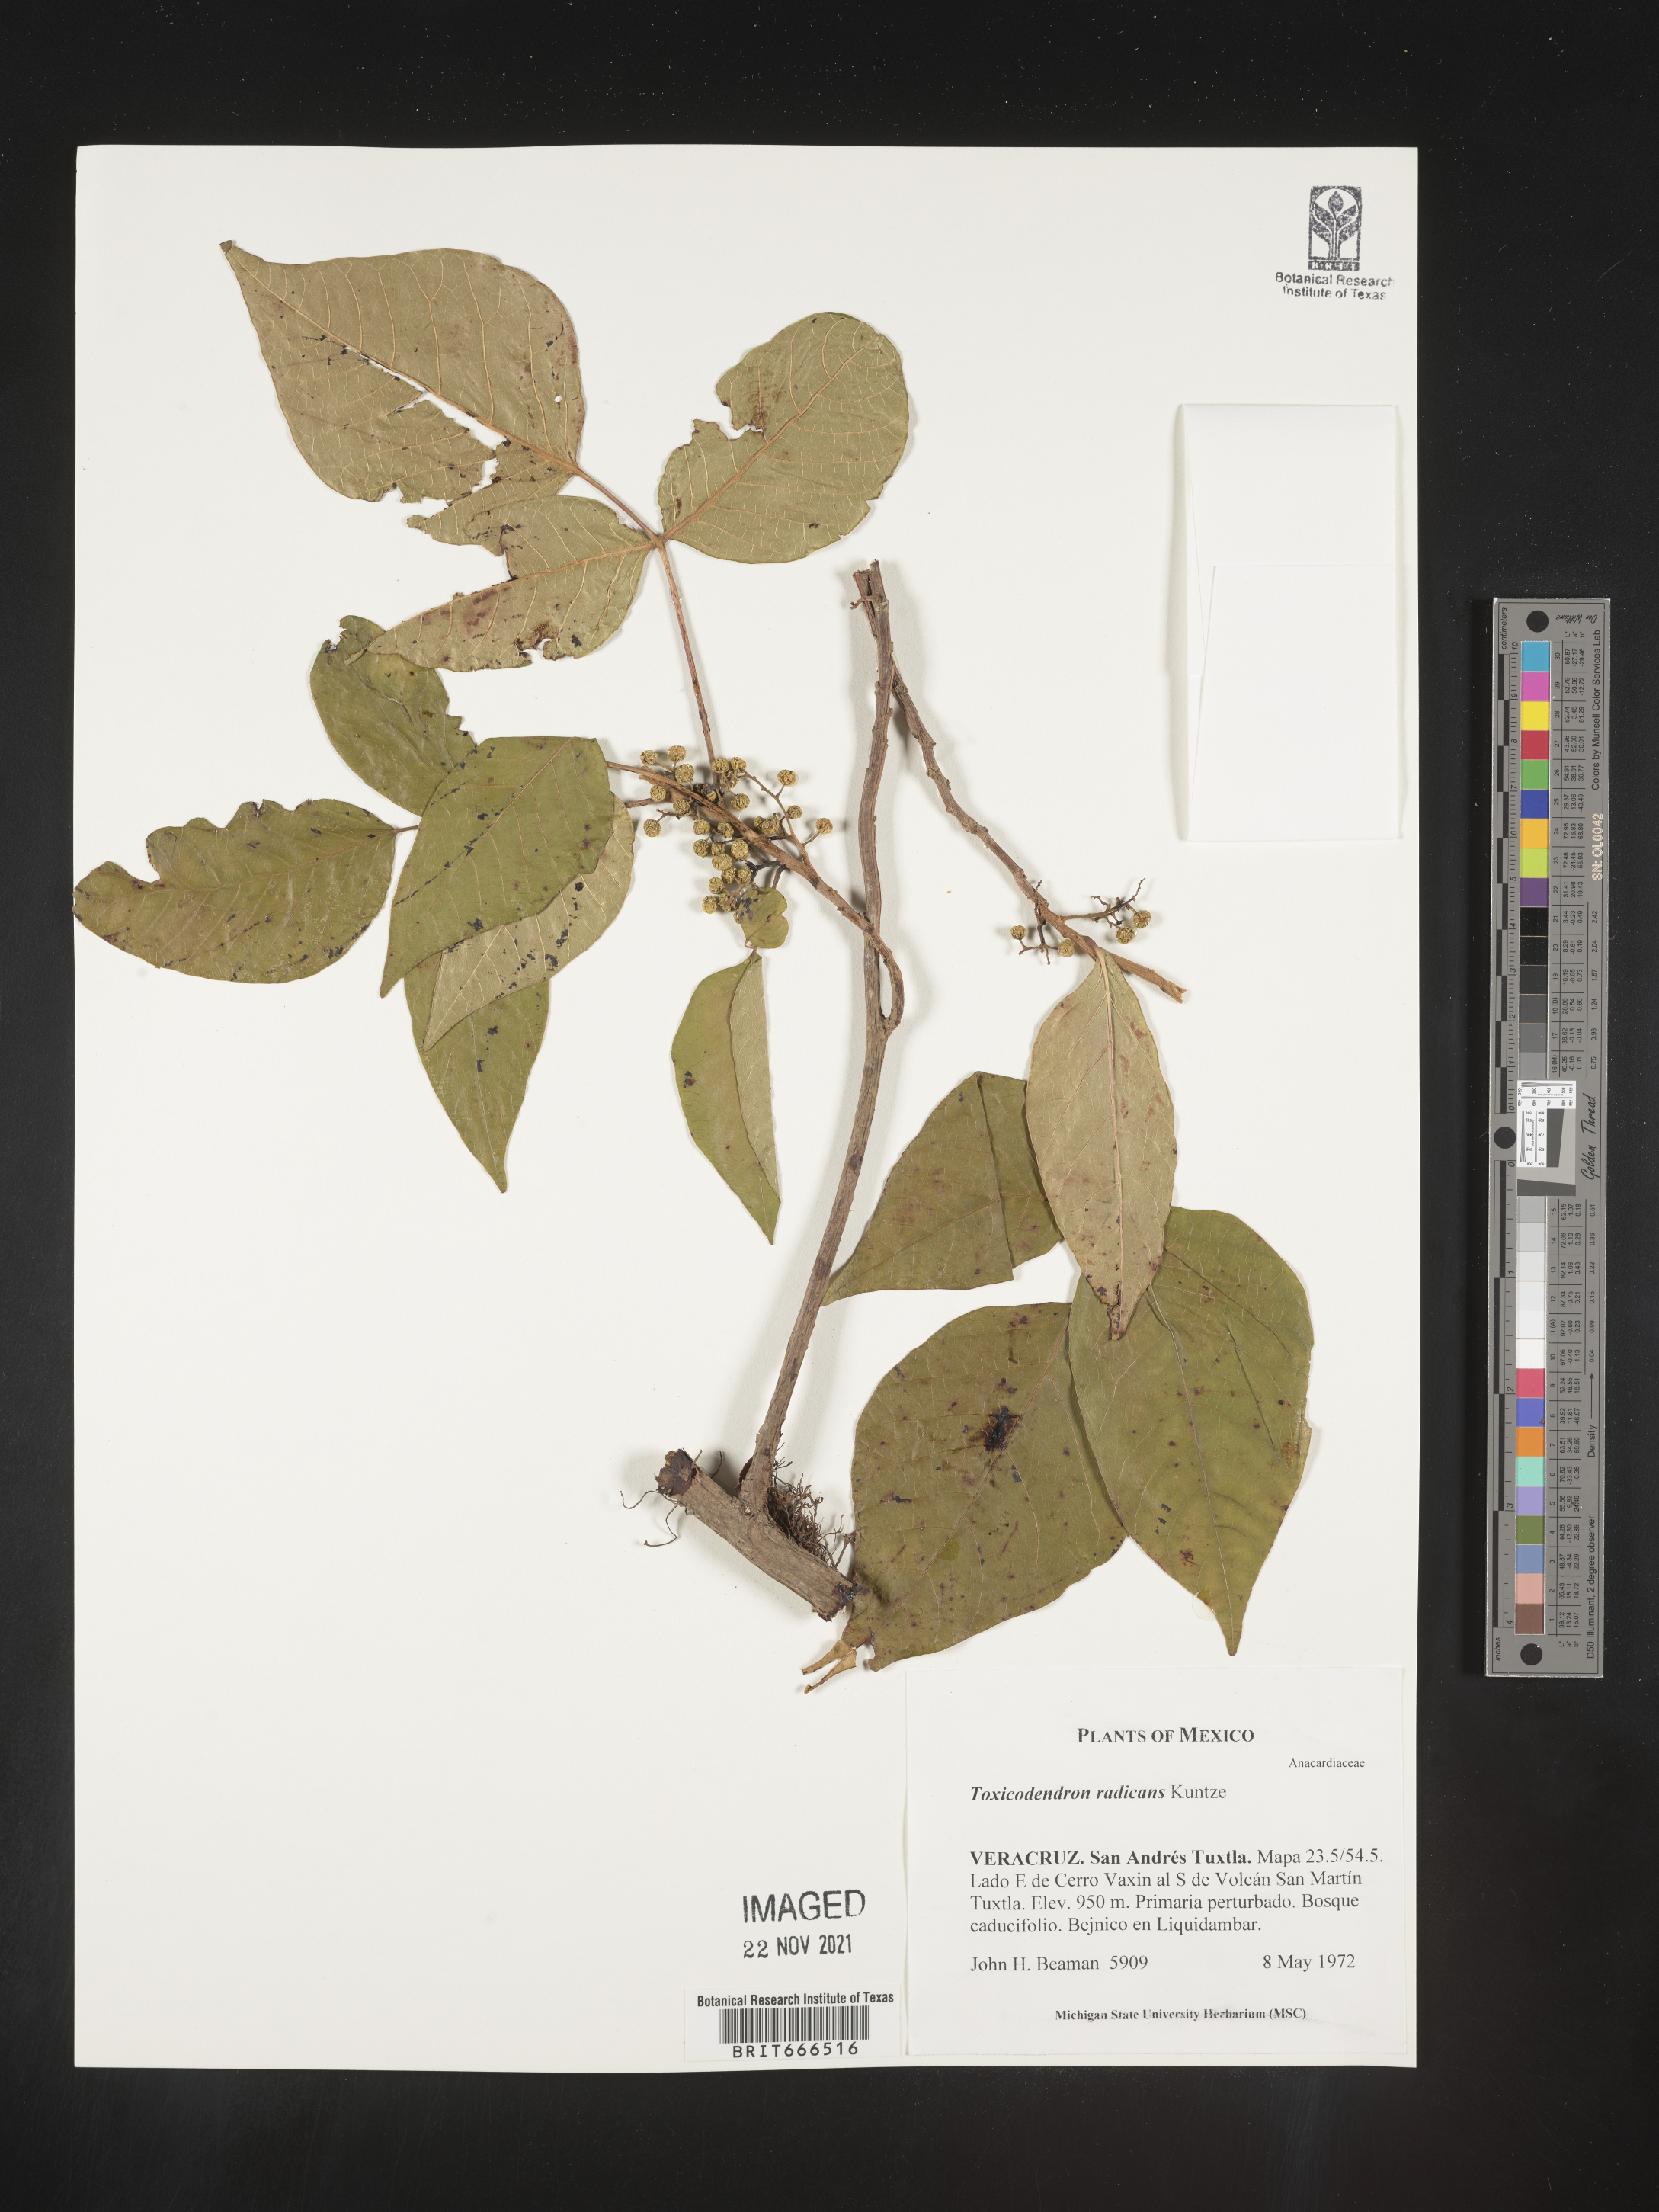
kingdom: Plantae
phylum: Tracheophyta
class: Magnoliopsida
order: Sapindales
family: Anacardiaceae
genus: Toxicodendron
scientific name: Toxicodendron
